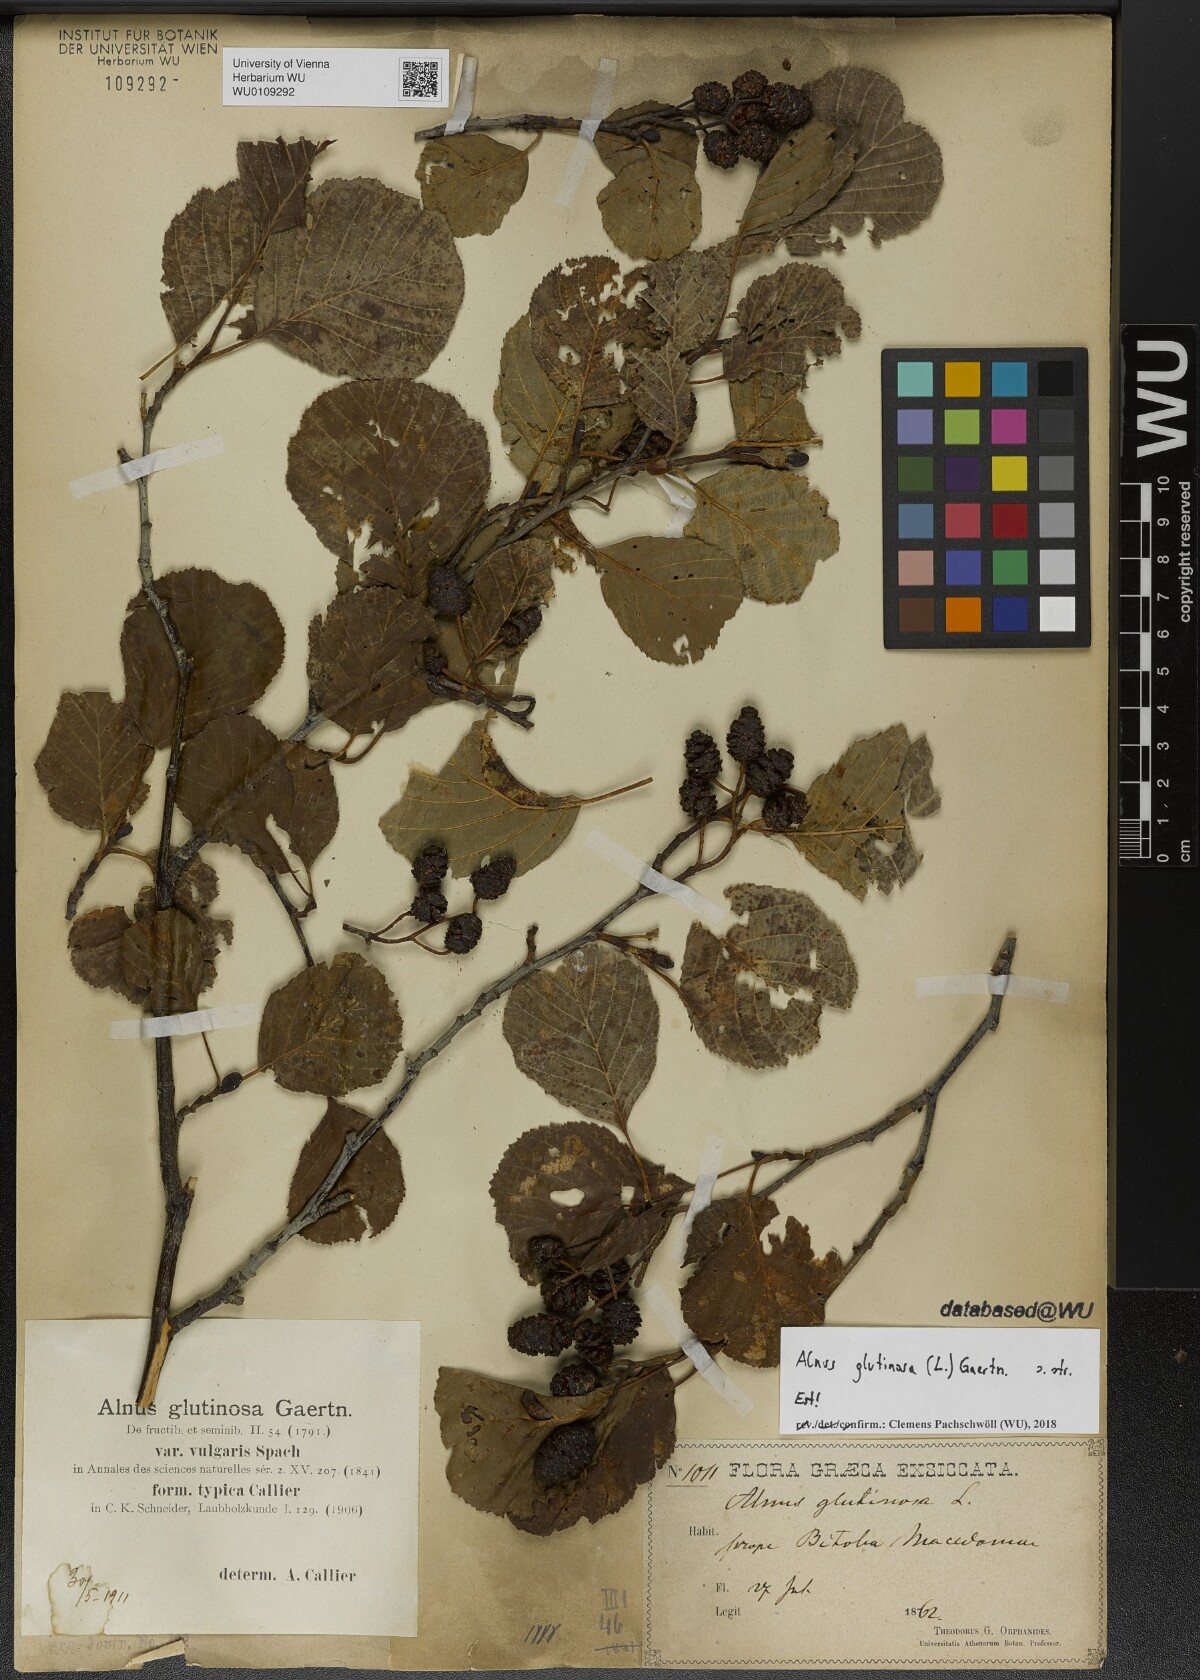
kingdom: Plantae
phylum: Tracheophyta
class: Magnoliopsida
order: Fagales
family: Betulaceae
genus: Alnus
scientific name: Alnus glutinosa
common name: Black alder
